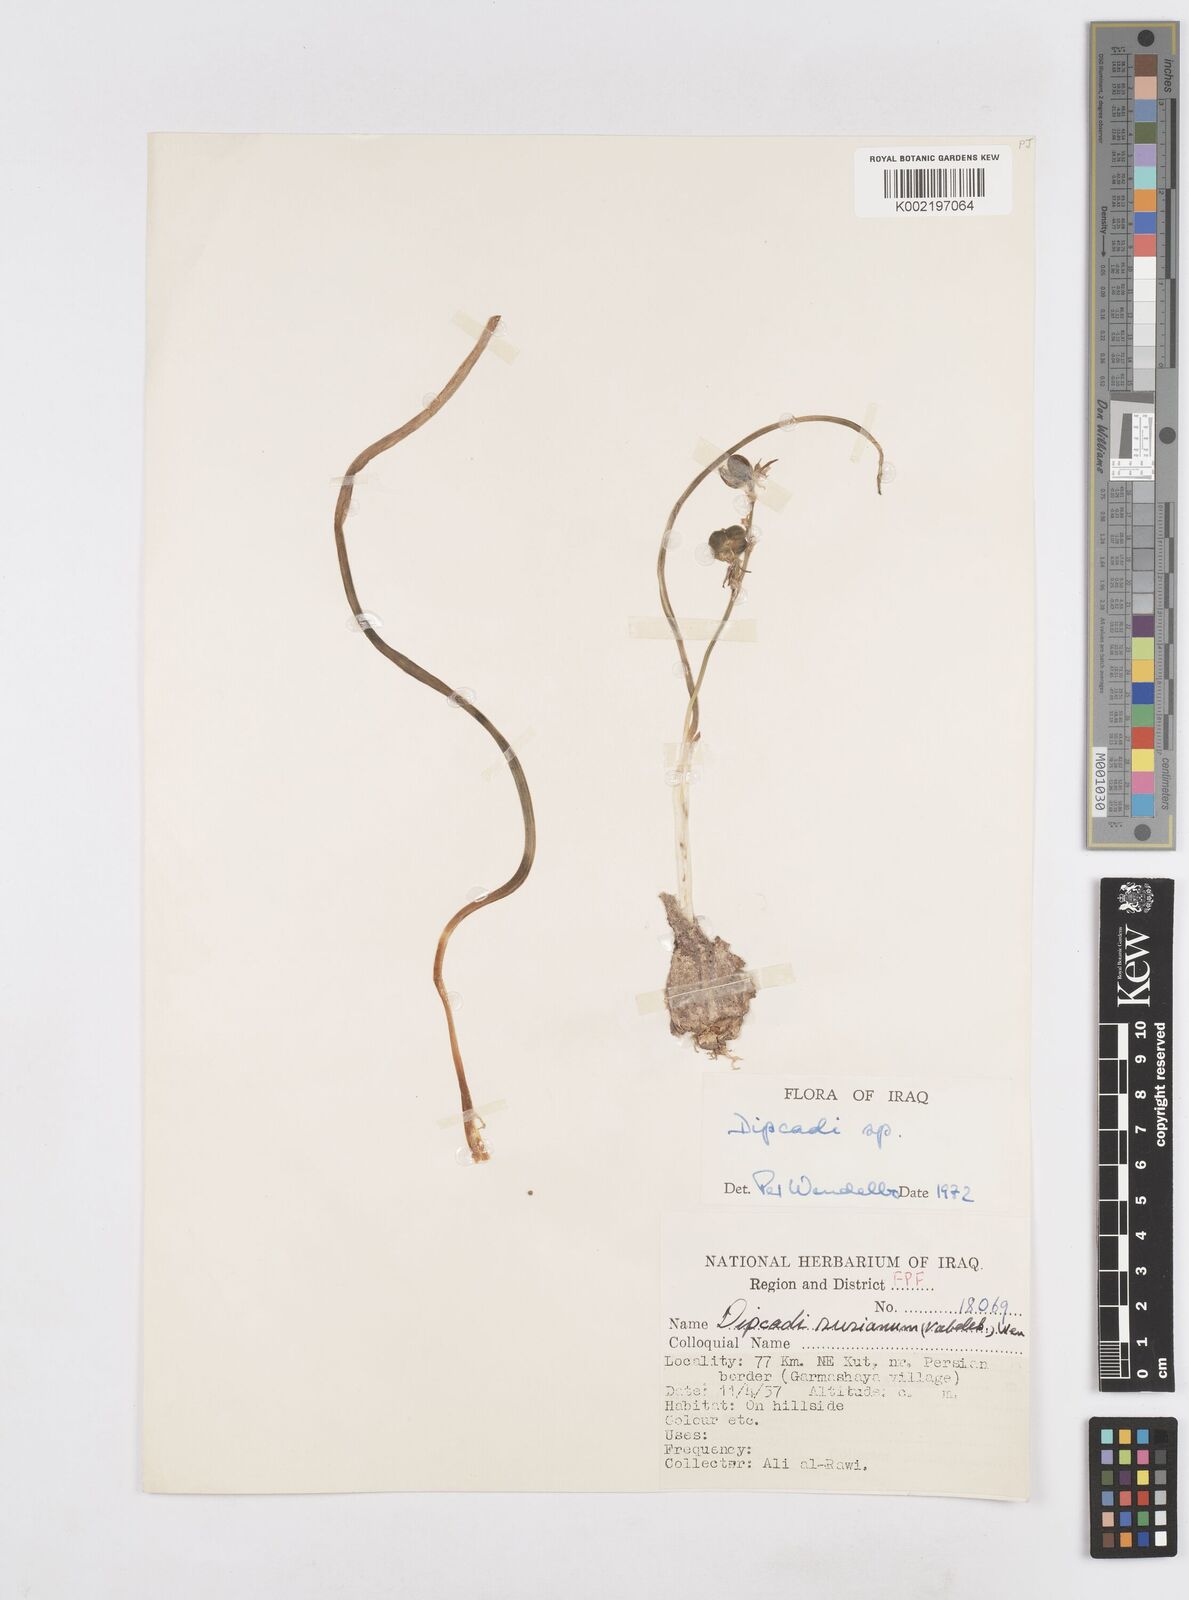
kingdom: Plantae
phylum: Tracheophyta
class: Liliopsida
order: Asparagales
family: Asparagaceae
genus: Dipcadi
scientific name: Dipcadi susianum
